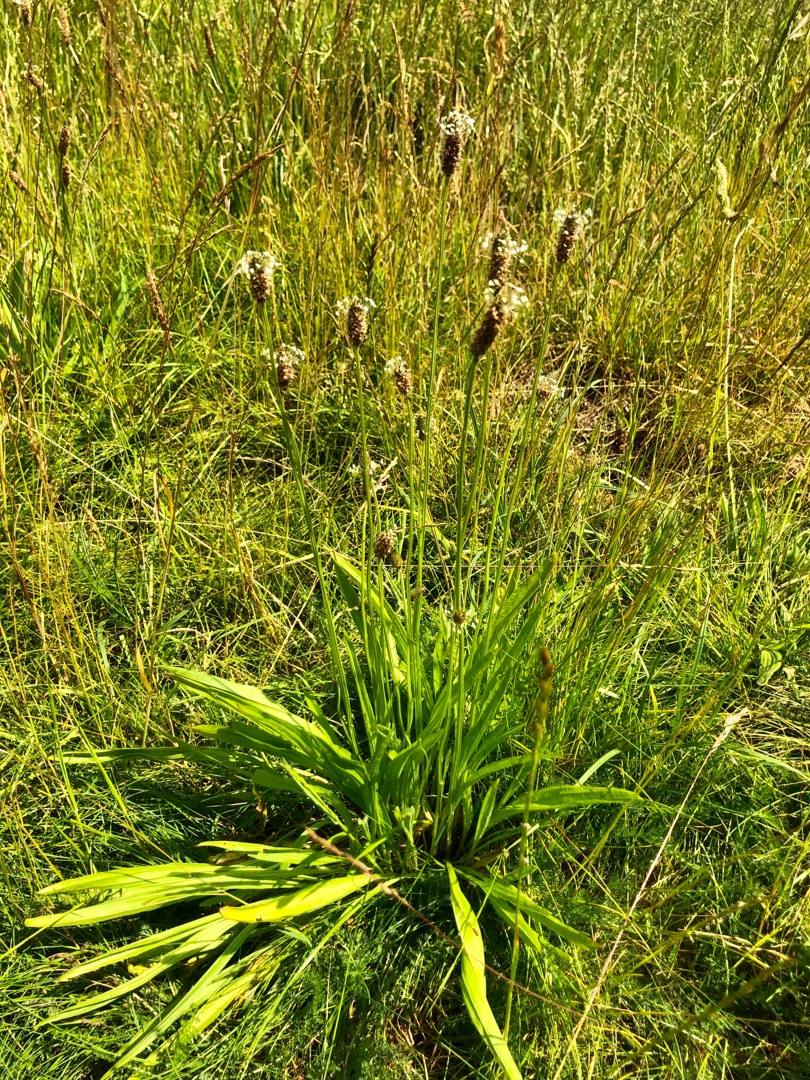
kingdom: Plantae
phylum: Tracheophyta
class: Magnoliopsida
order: Lamiales
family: Plantaginaceae
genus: Plantago
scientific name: Plantago lanceolata
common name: Lancet-vejbred
